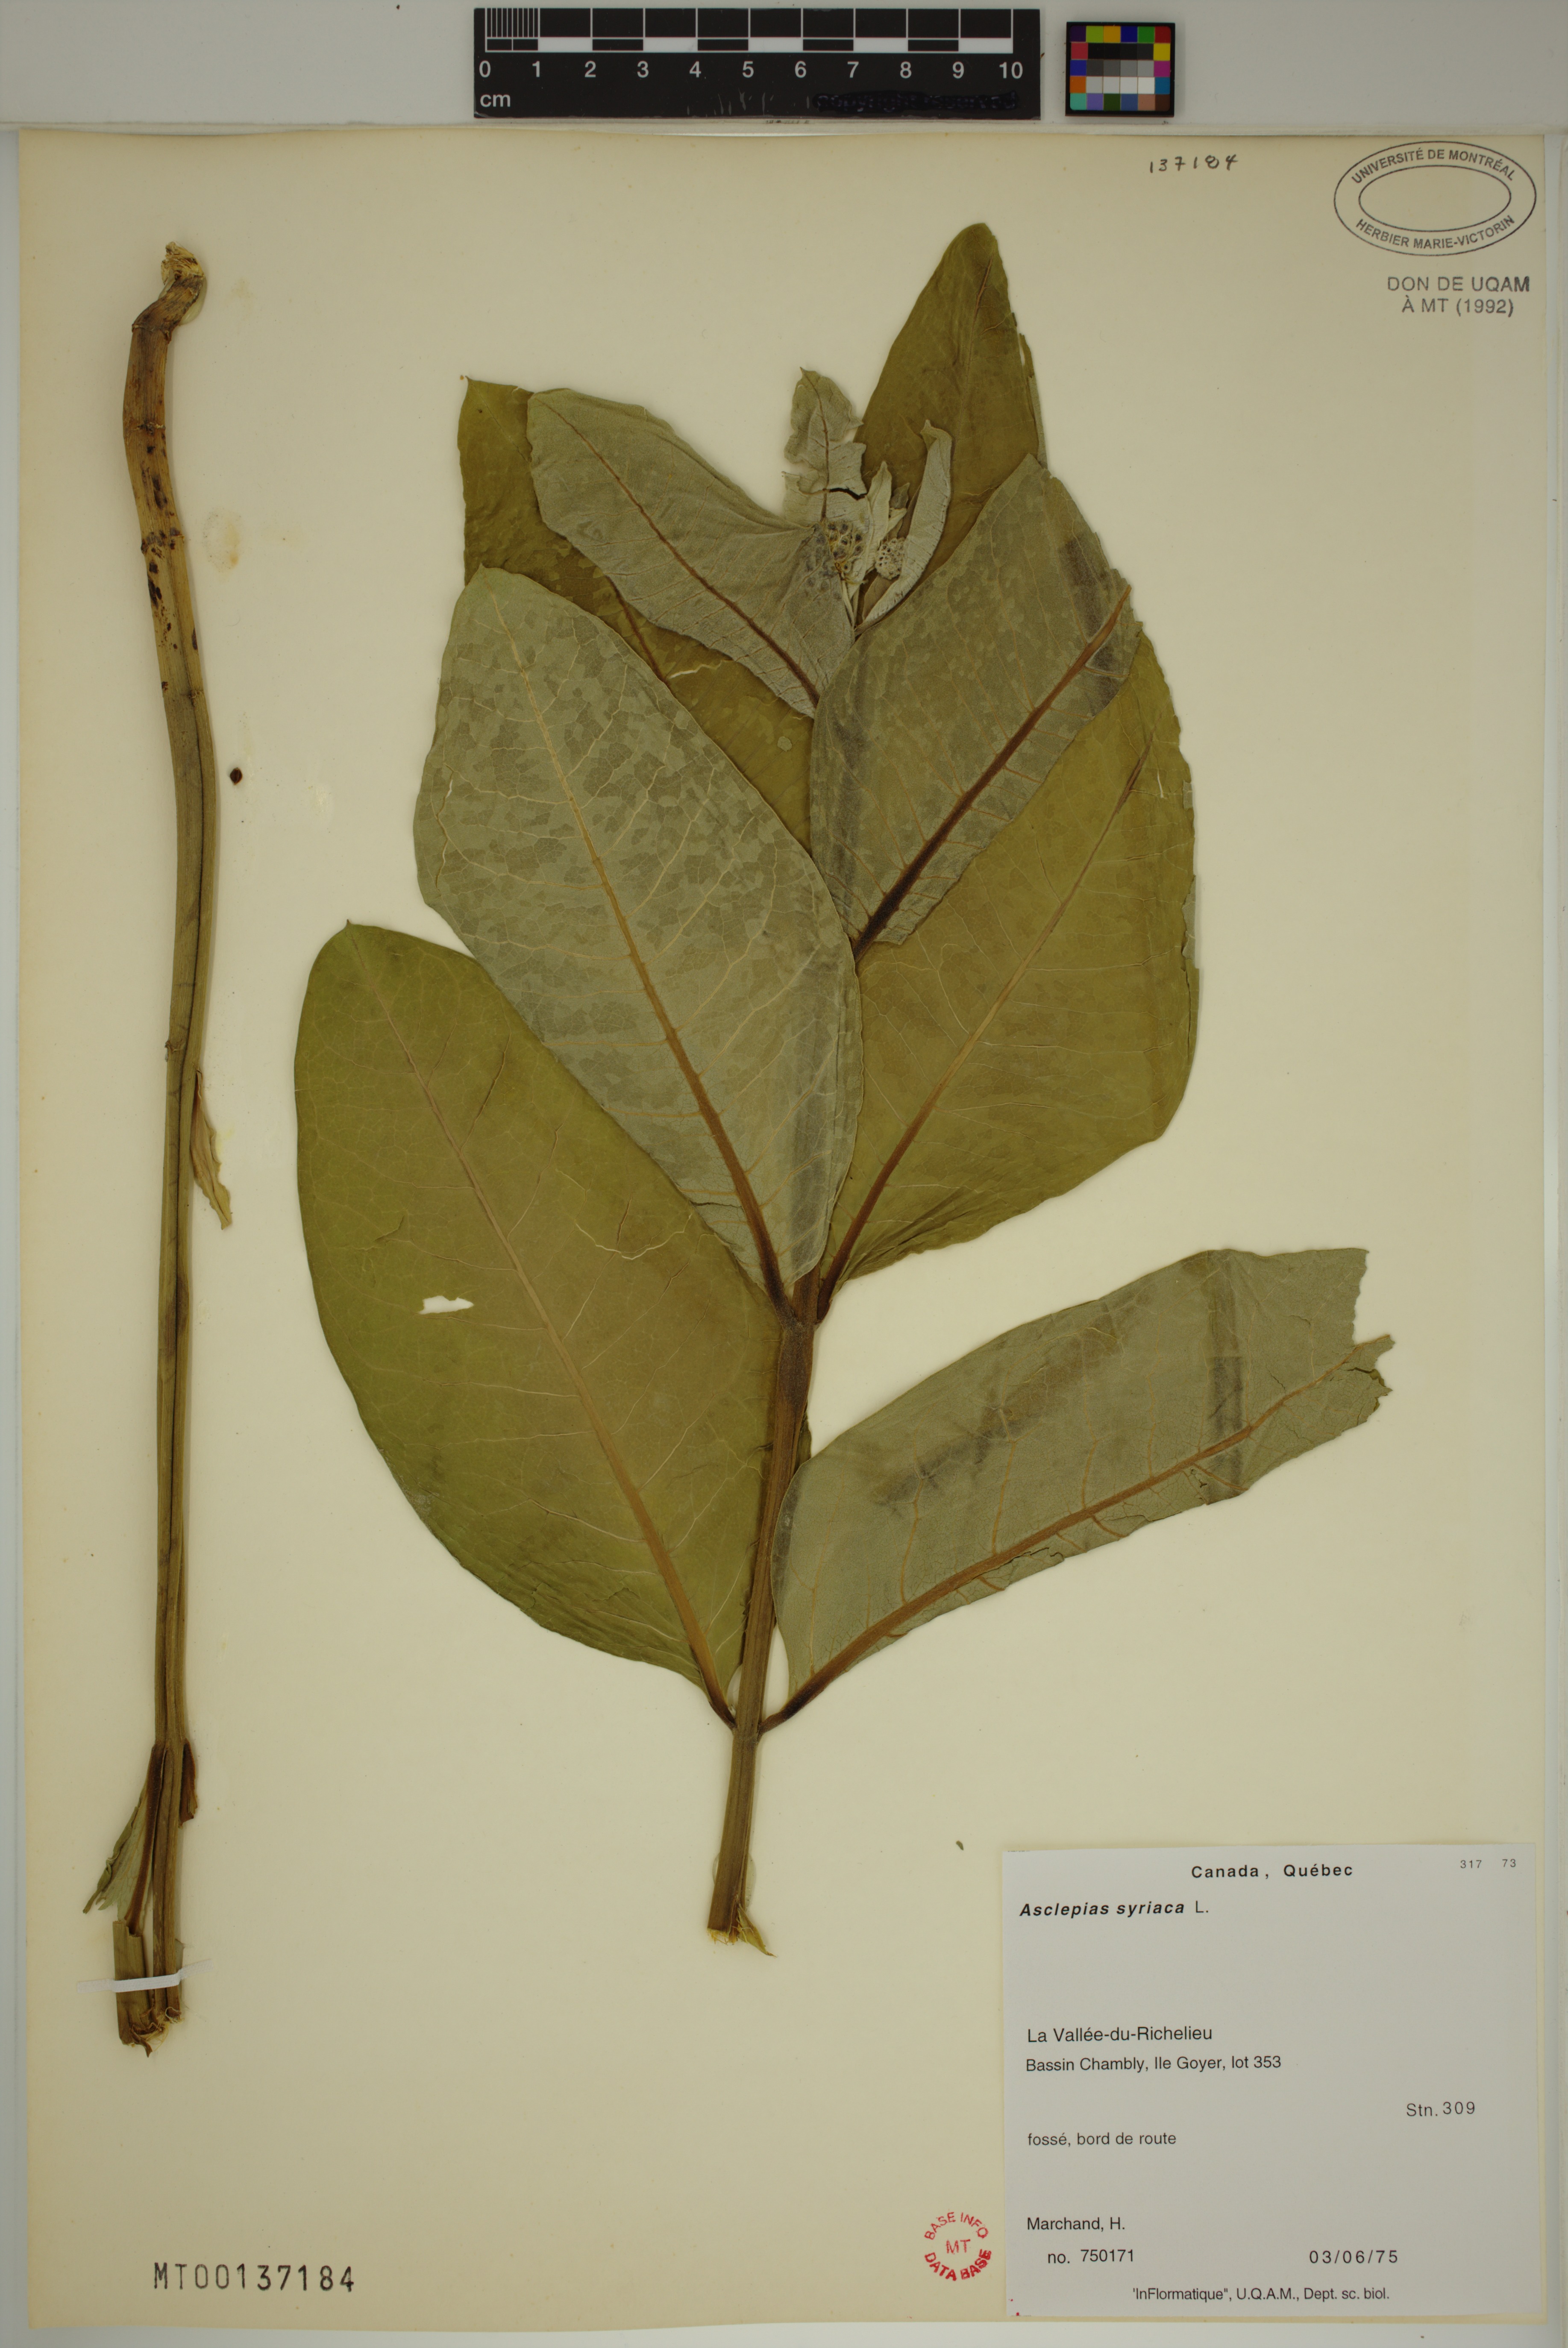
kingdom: Plantae
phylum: Tracheophyta
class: Magnoliopsida
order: Gentianales
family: Apocynaceae
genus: Asclepias
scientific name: Asclepias syriaca
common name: Common milkweed
